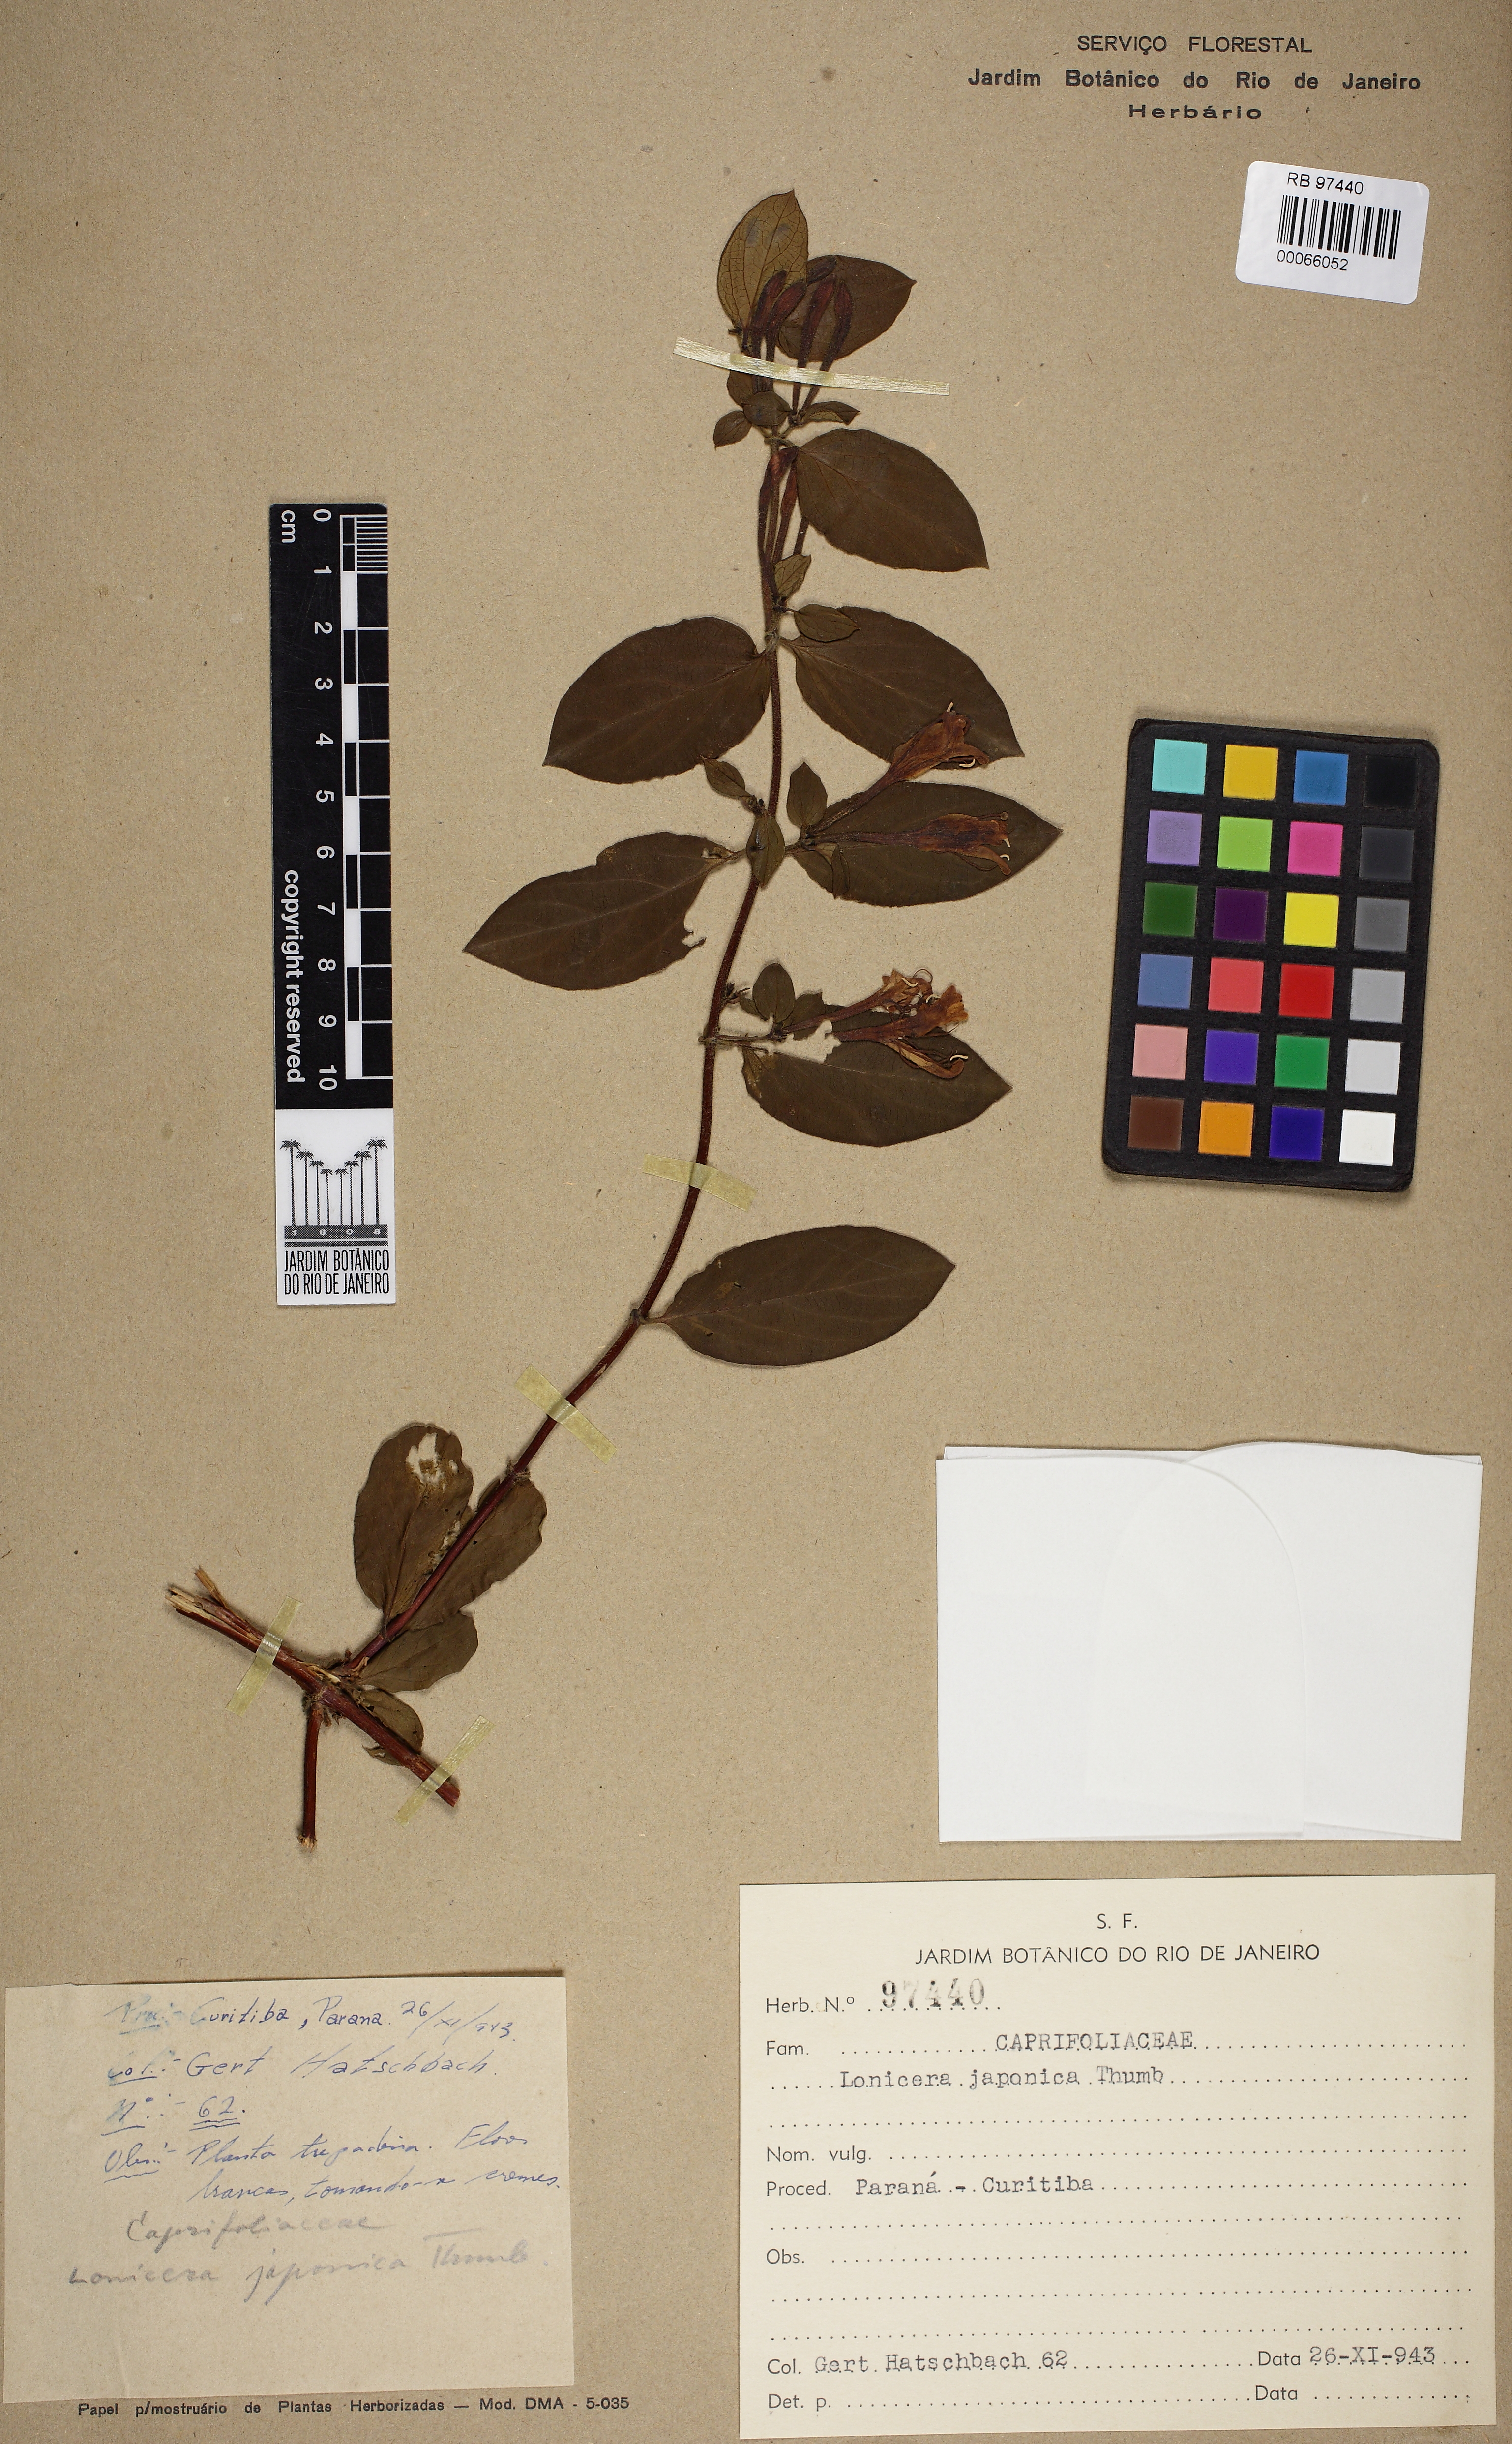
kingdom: Plantae
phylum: Tracheophyta
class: Magnoliopsida
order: Dipsacales
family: Caprifoliaceae
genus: Lonicera
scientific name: Lonicera japonica
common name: Japanese honeysuckle
